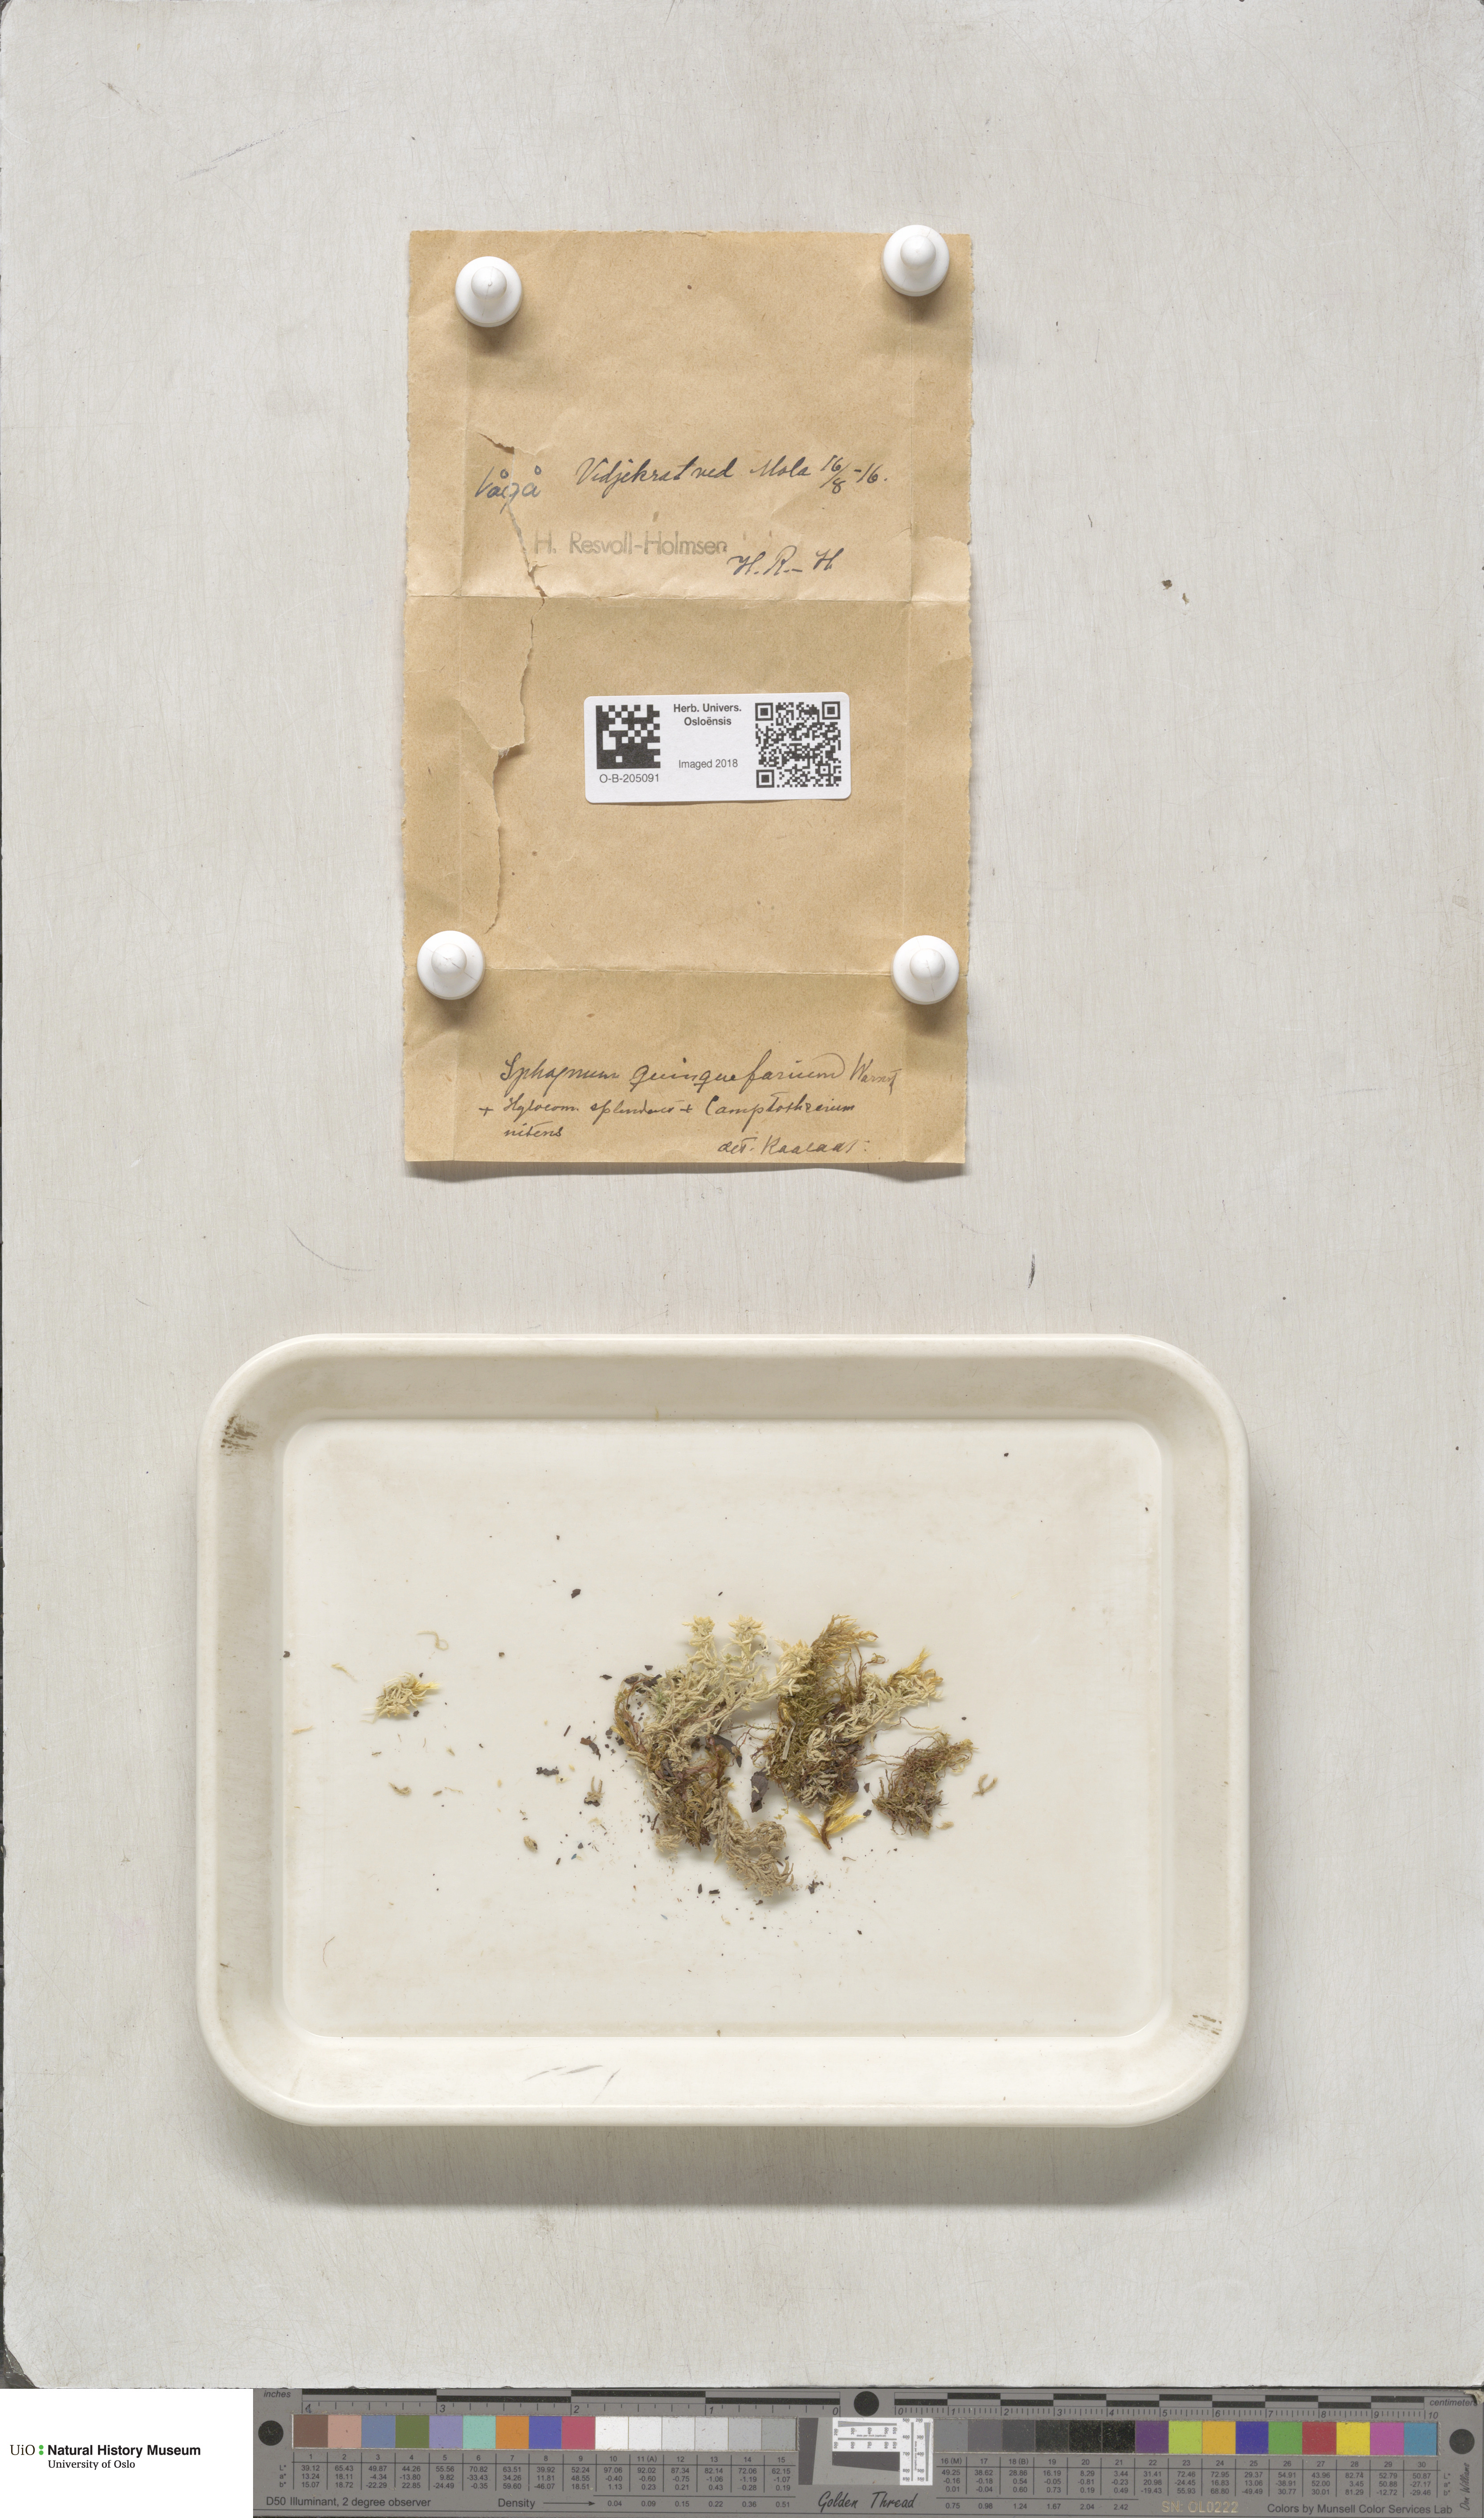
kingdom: Plantae
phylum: Bryophyta
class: Sphagnopsida
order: Sphagnales
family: Sphagnaceae
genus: Sphagnum
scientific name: Sphagnum quinquefarium
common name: Five-ranked peat moss
